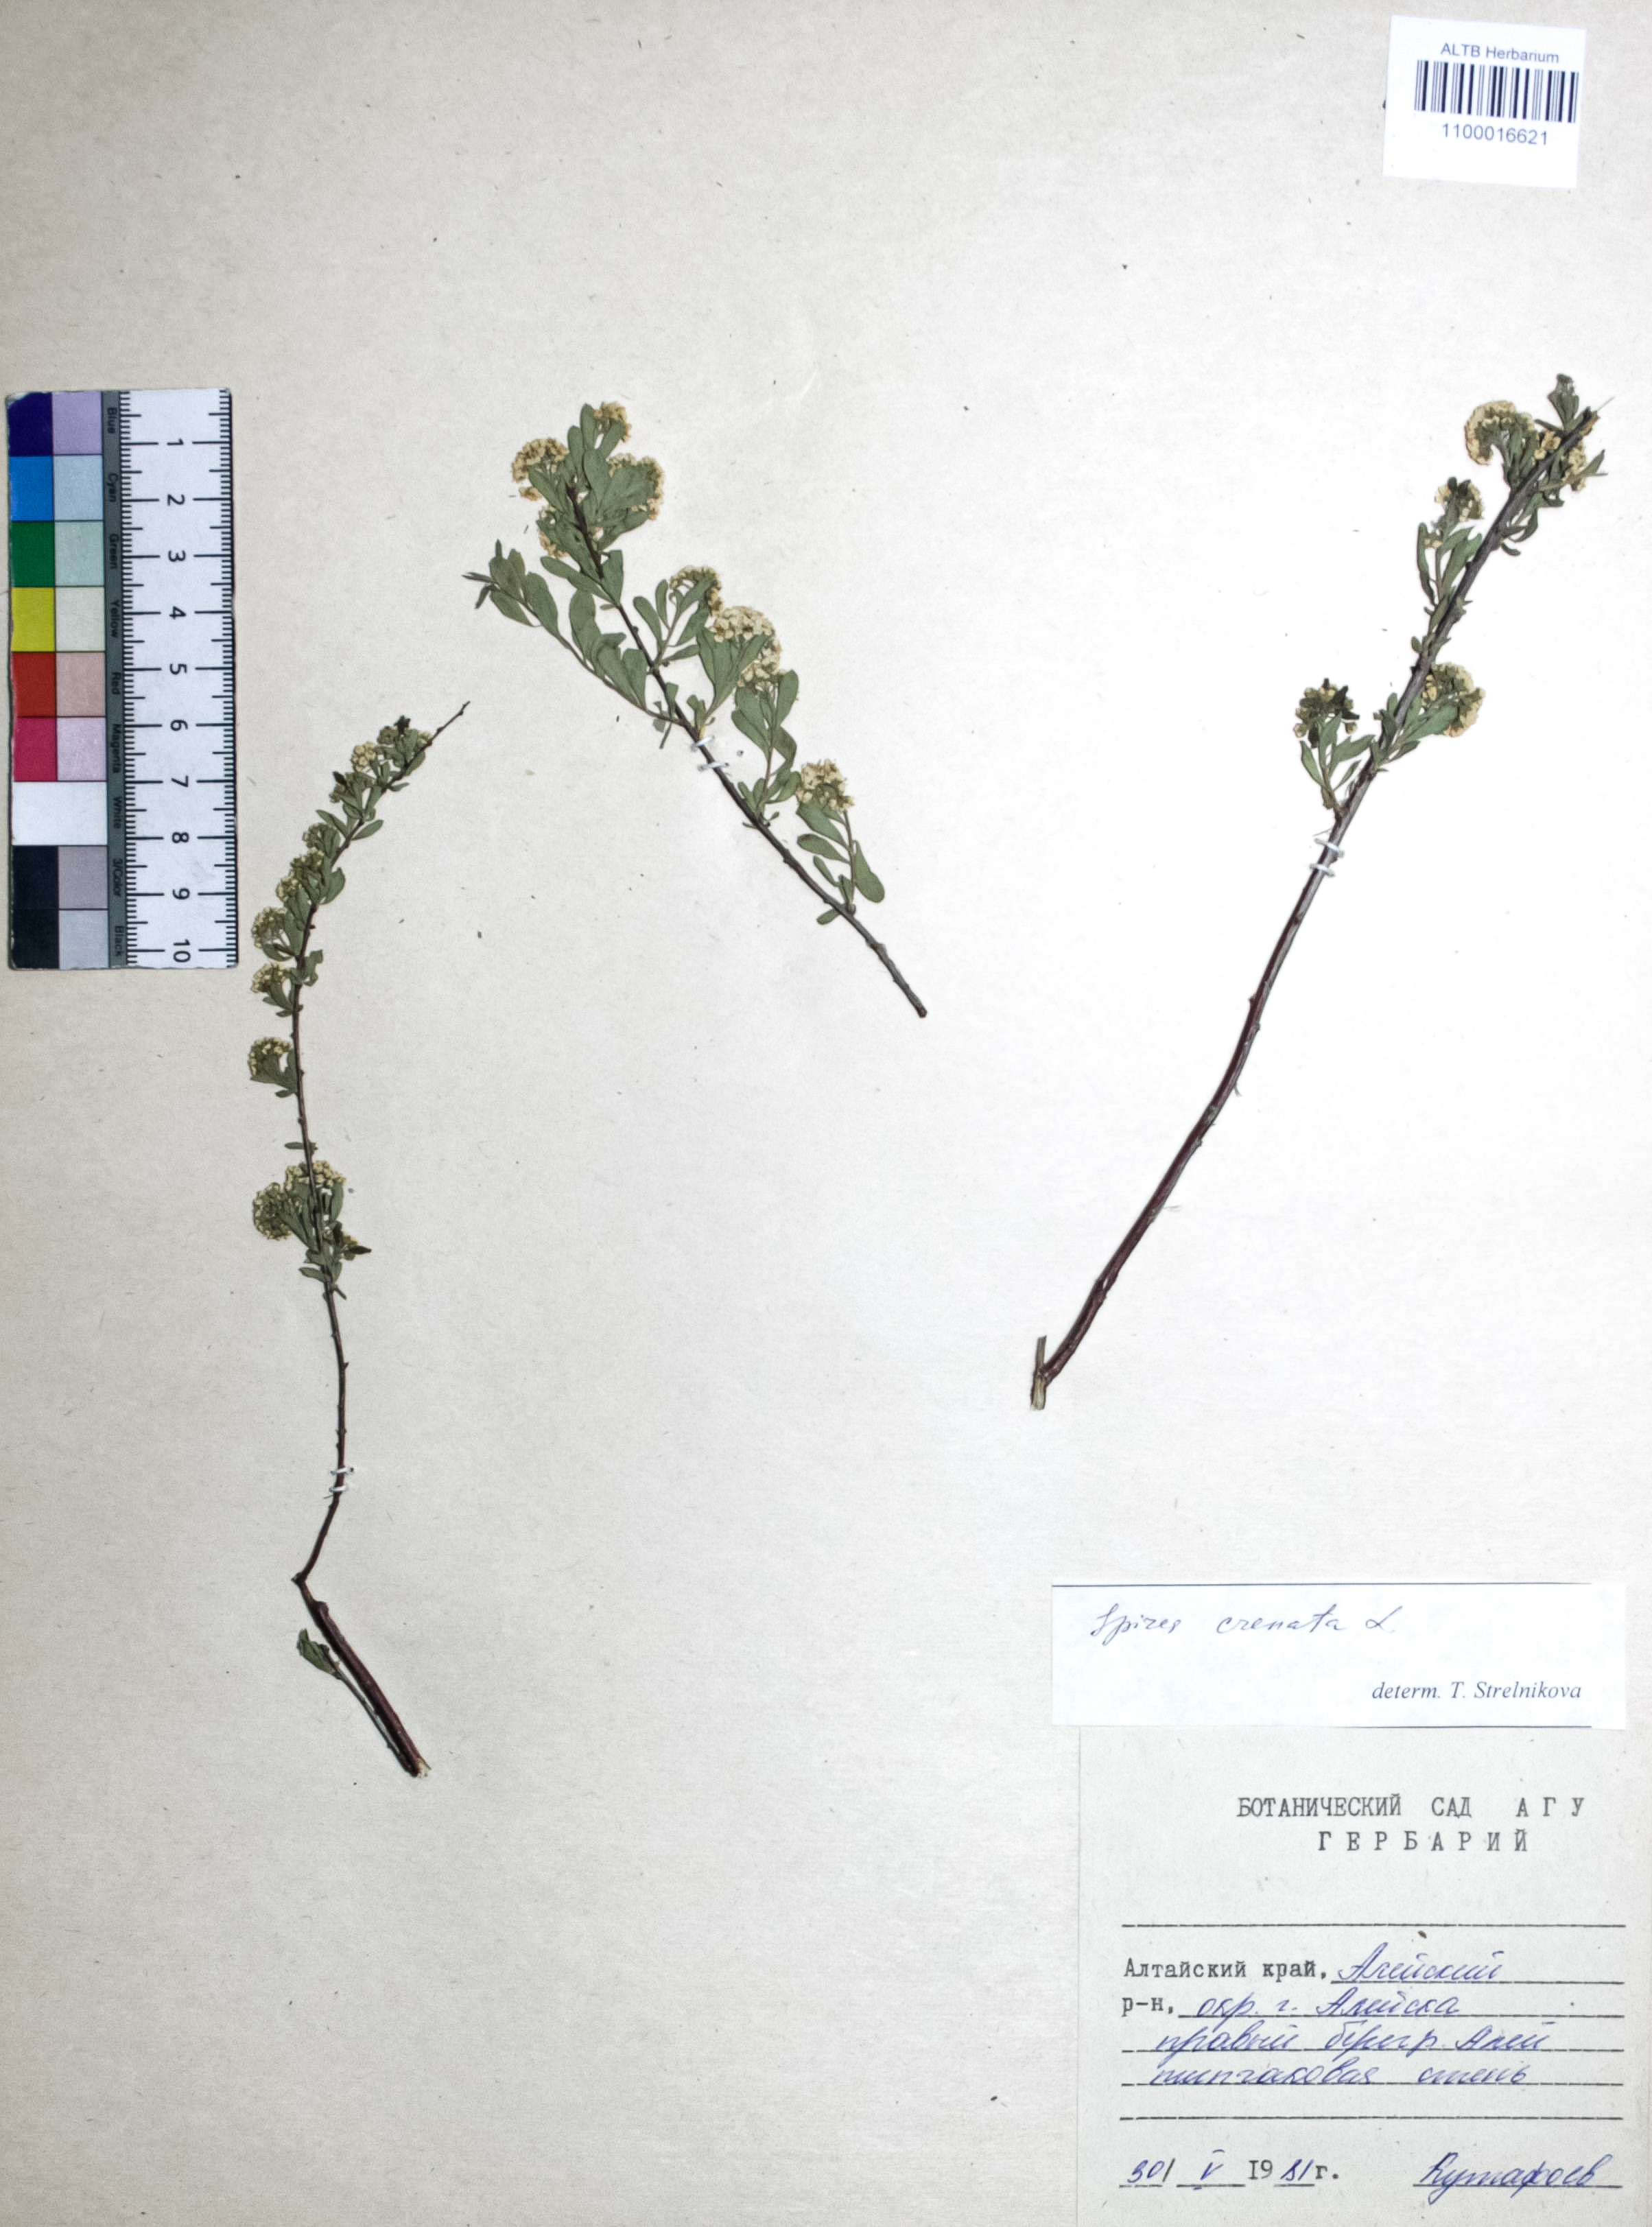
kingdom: Plantae
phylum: Tracheophyta
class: Magnoliopsida
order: Rosales
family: Rosaceae
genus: Spiraea
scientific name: Spiraea crenata
